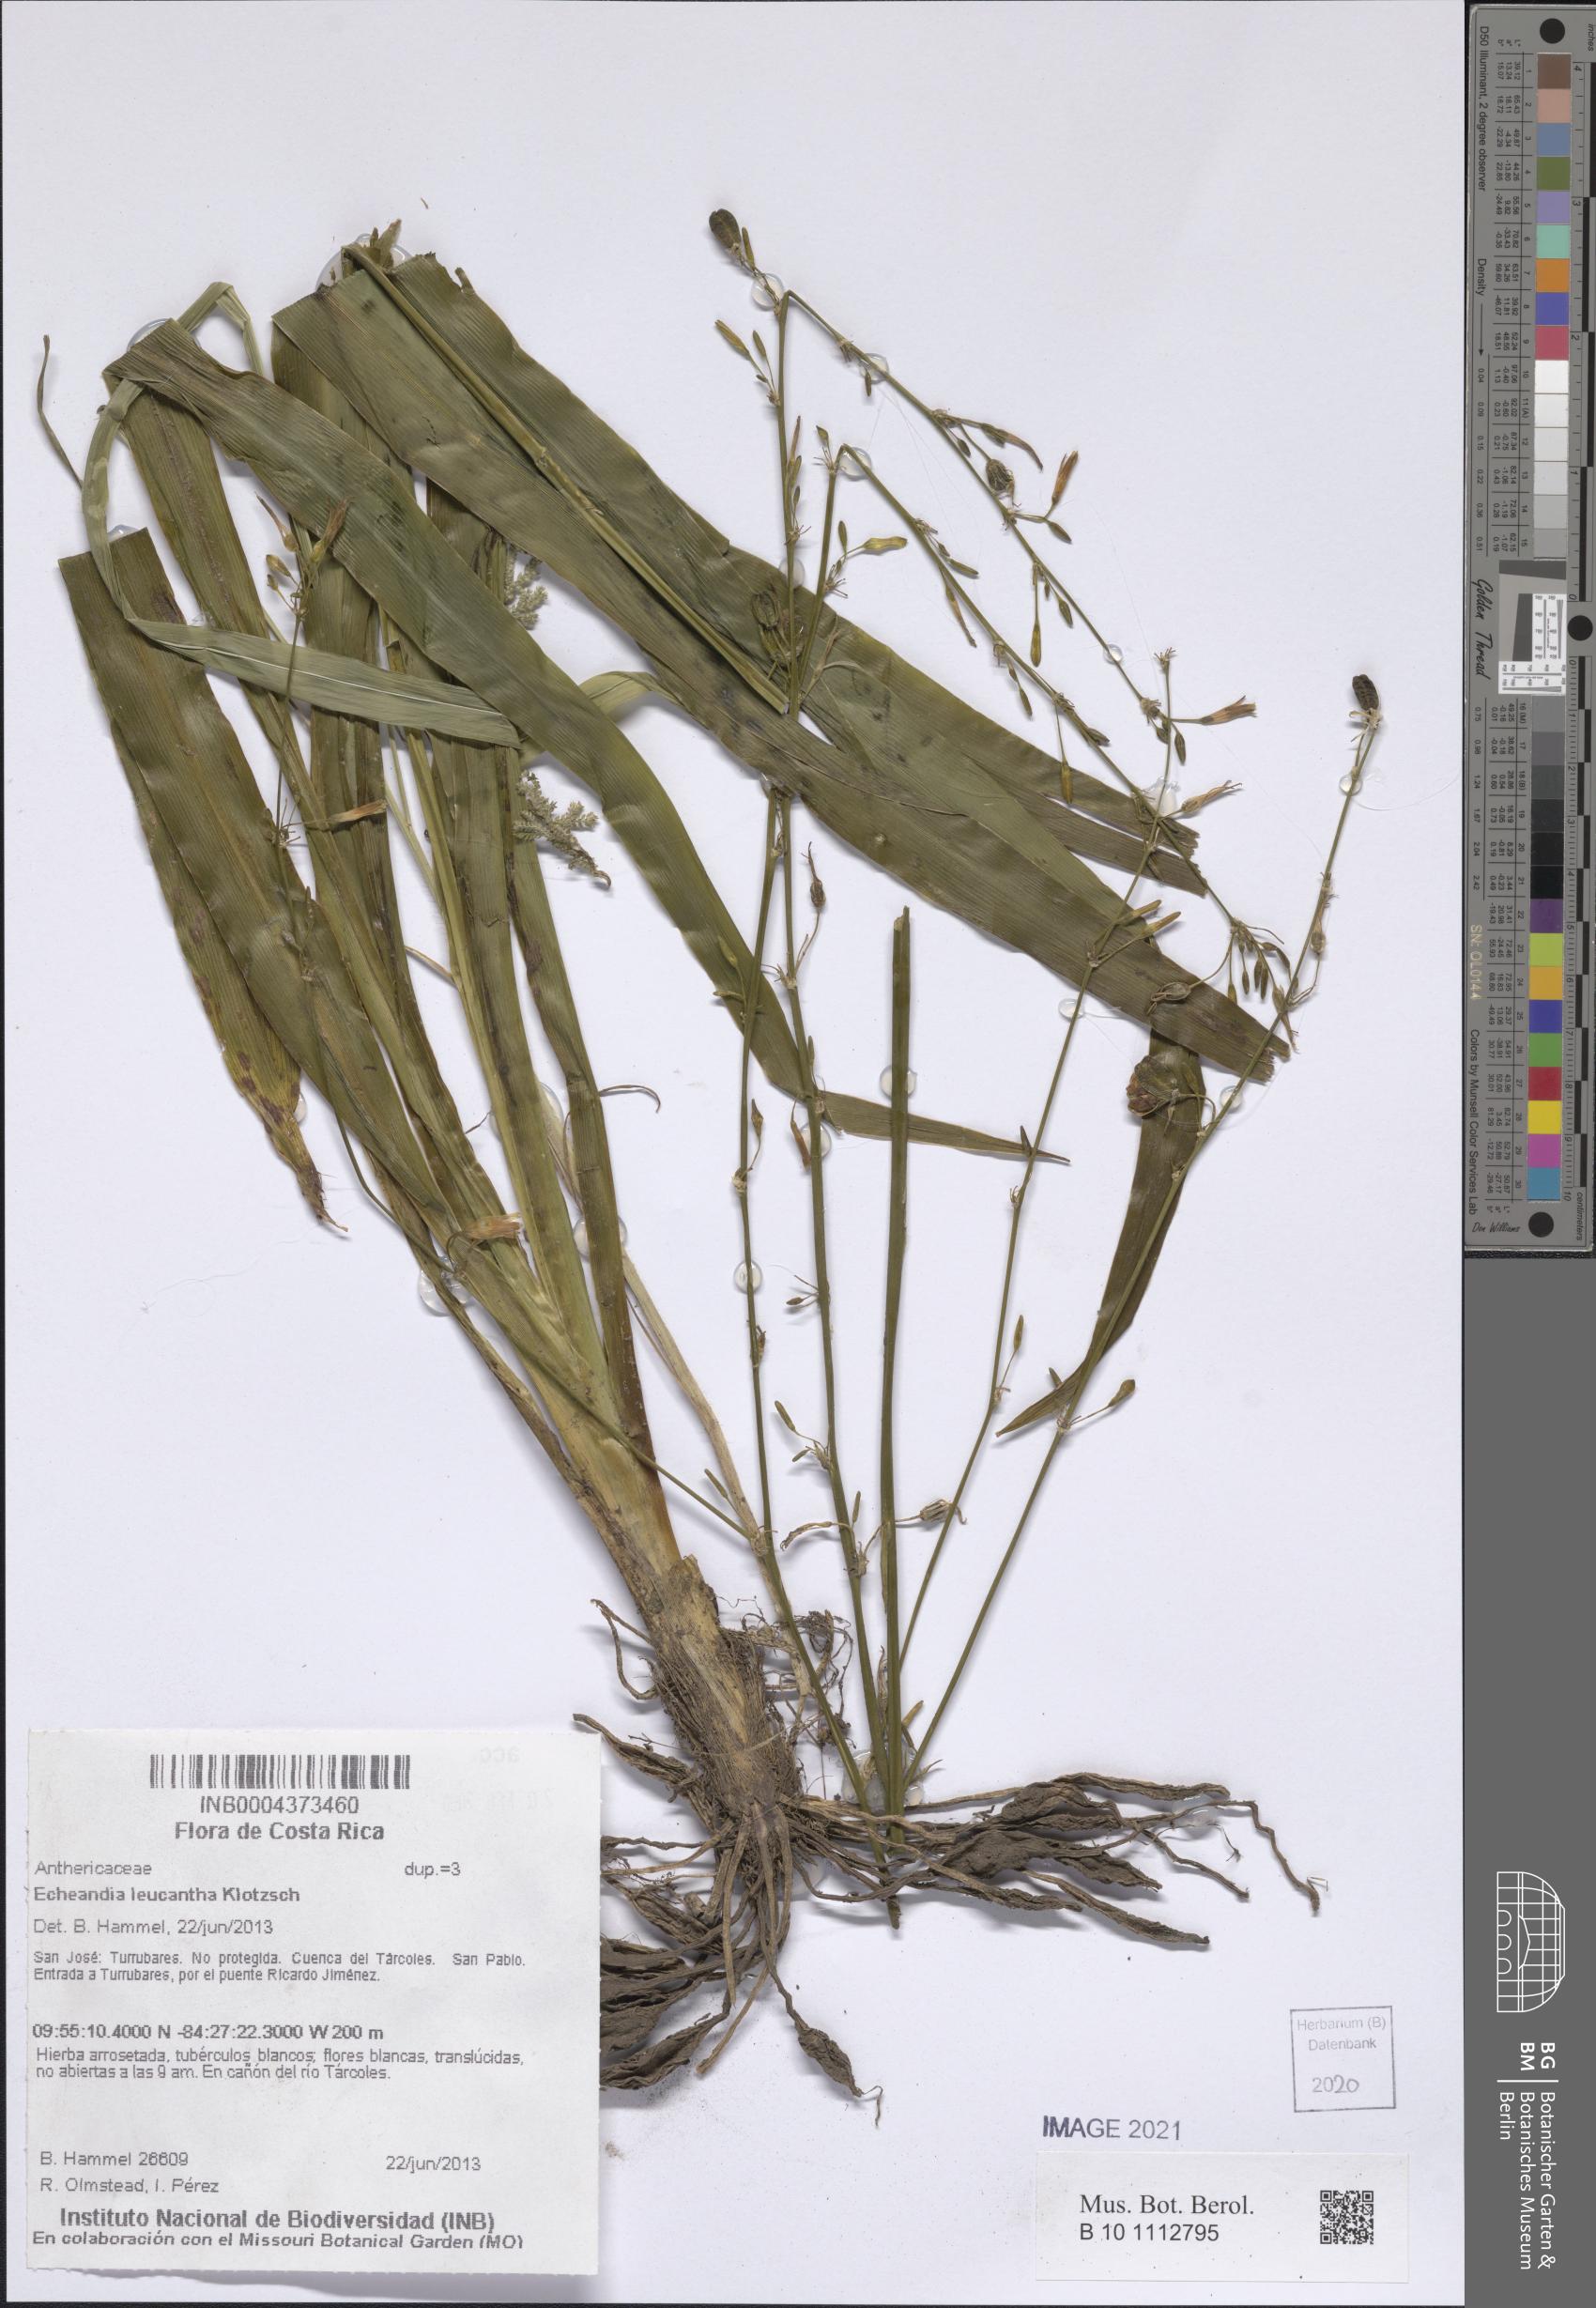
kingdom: Plantae
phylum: Tracheophyta
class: Liliopsida
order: Asparagales
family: Asparagaceae
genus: Echeandia
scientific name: Echeandia leucantha
